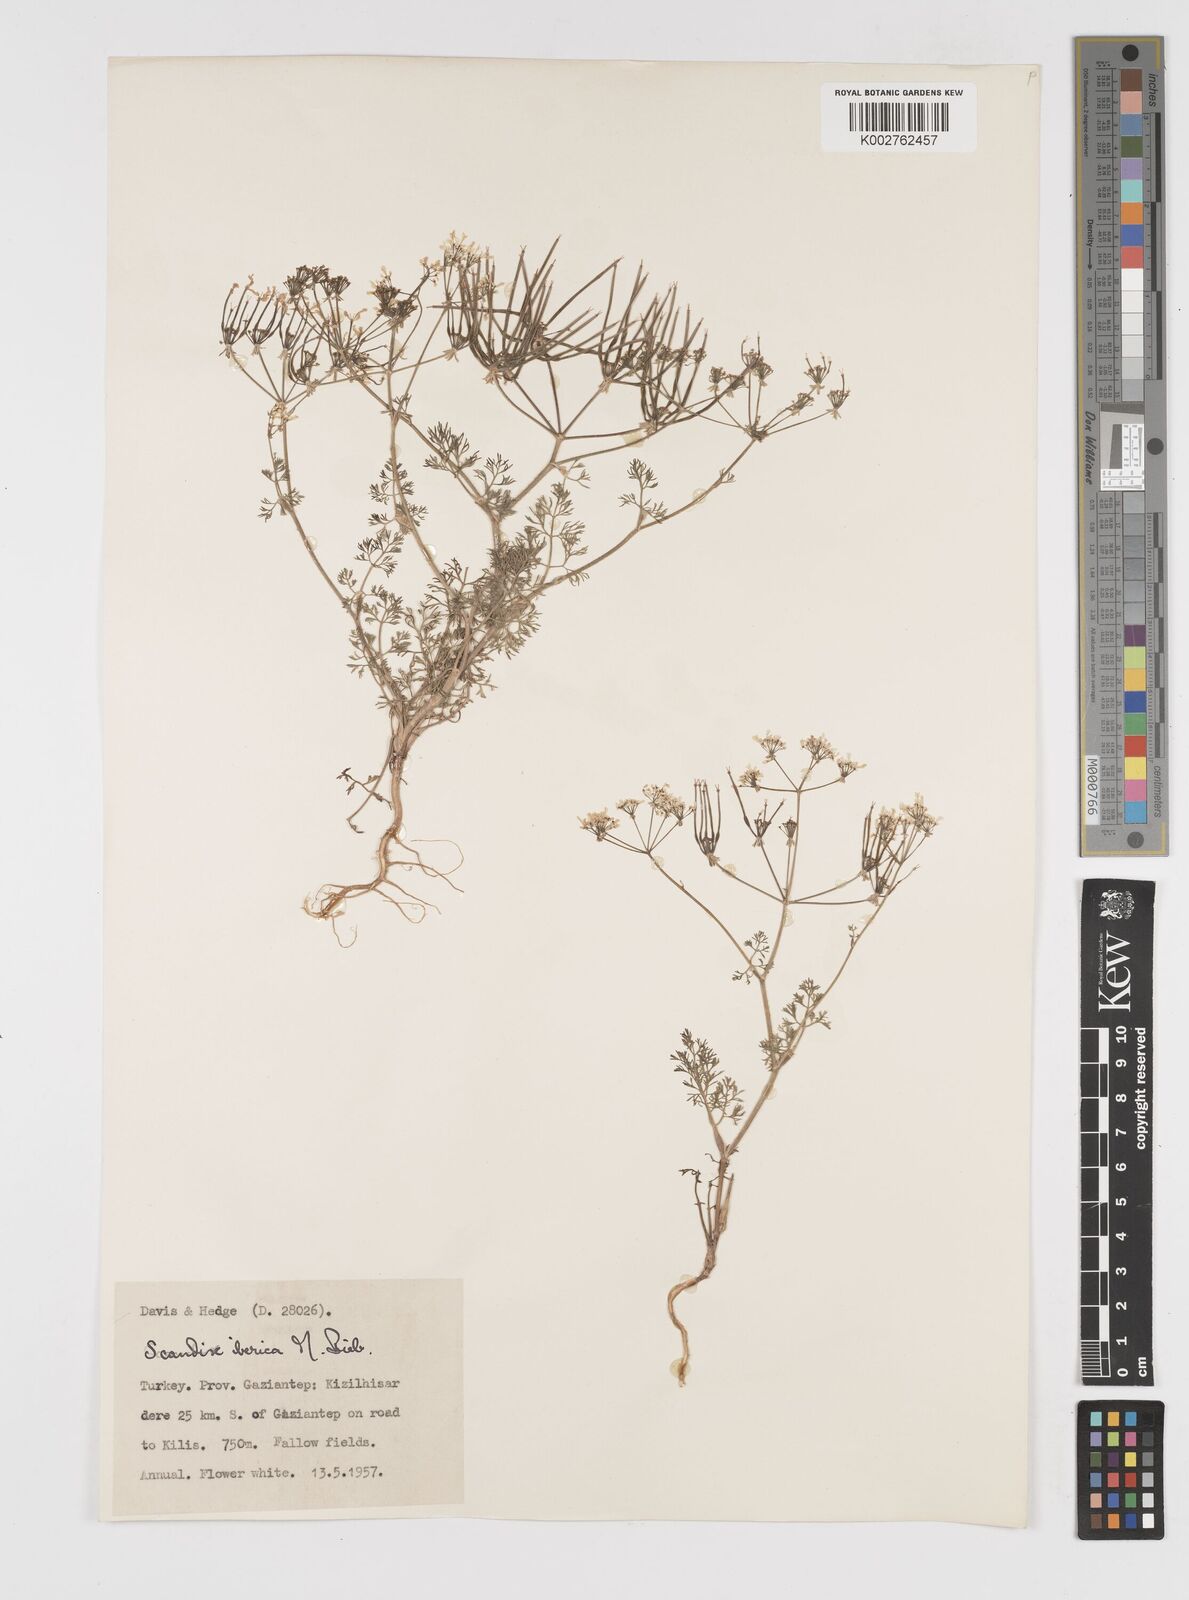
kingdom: Plantae
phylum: Tracheophyta
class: Magnoliopsida
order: Apiales
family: Apiaceae
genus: Scandix
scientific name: Scandix iberica
